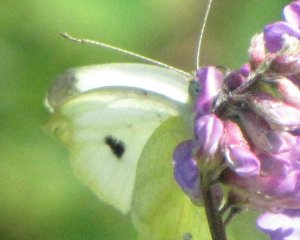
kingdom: Animalia
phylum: Arthropoda
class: Insecta
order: Lepidoptera
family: Pieridae
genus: Pieris
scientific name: Pieris rapae
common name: Cabbage White
